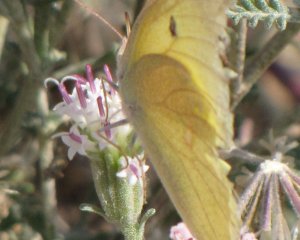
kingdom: Animalia
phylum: Arthropoda
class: Insecta
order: Lepidoptera
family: Pieridae
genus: Colias
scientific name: Colias alexandra
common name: Queen Alexandra's Sulphur
